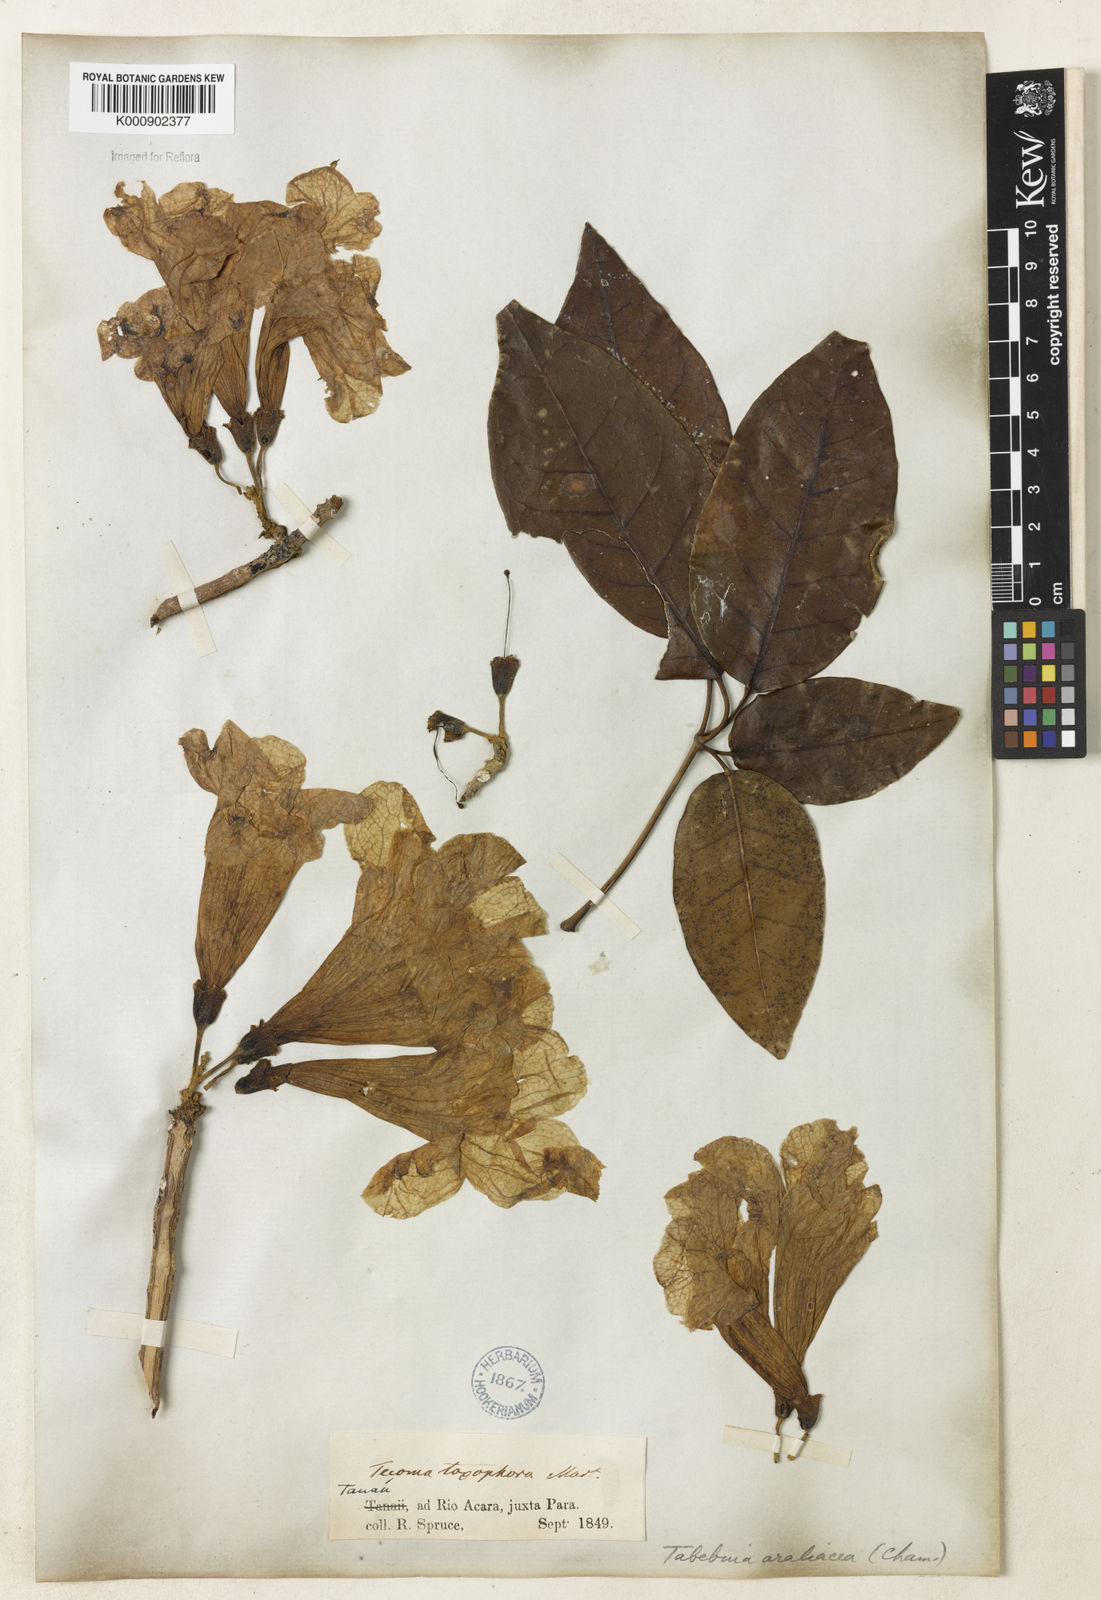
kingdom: Plantae
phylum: Tracheophyta
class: Magnoliopsida
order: Lamiales
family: Bignoniaceae
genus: Handroanthus
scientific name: Handroanthus serratifolius
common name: Yellow ipe
